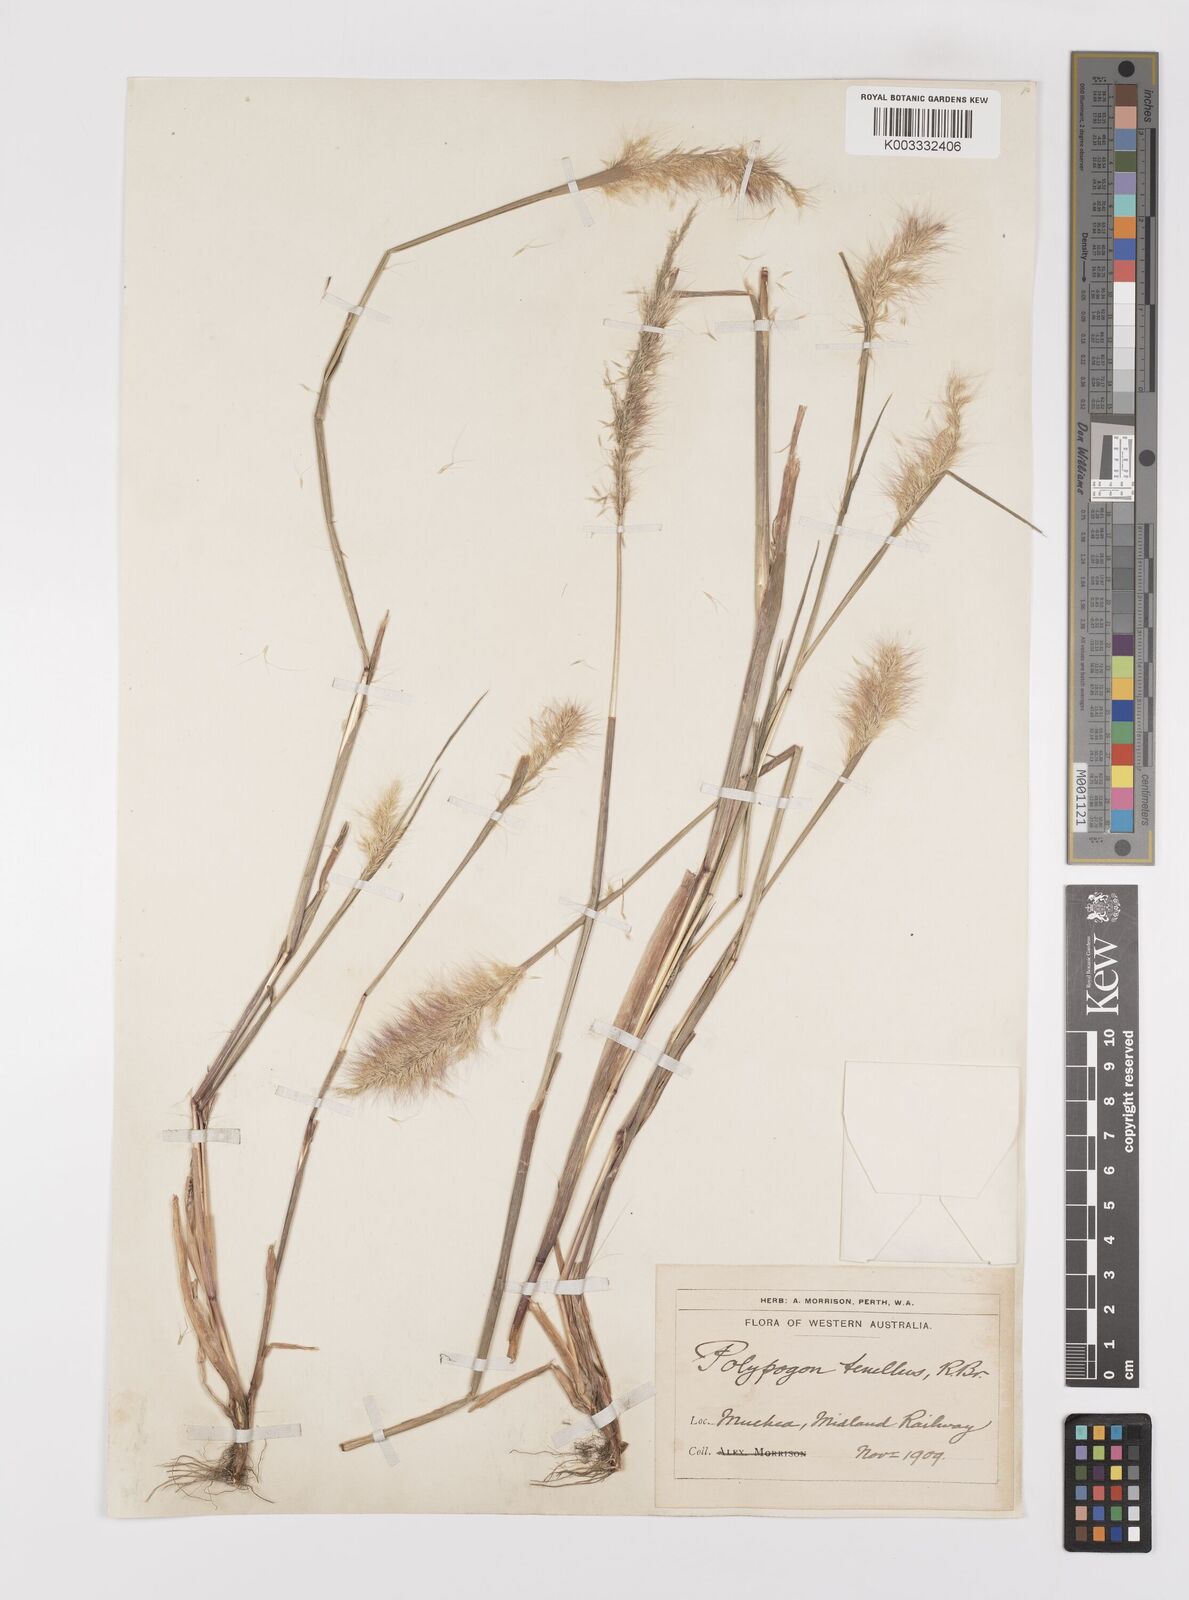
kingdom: Plantae
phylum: Tracheophyta
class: Liliopsida
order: Poales
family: Poaceae
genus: Polypogon
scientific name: Polypogon tenellus
